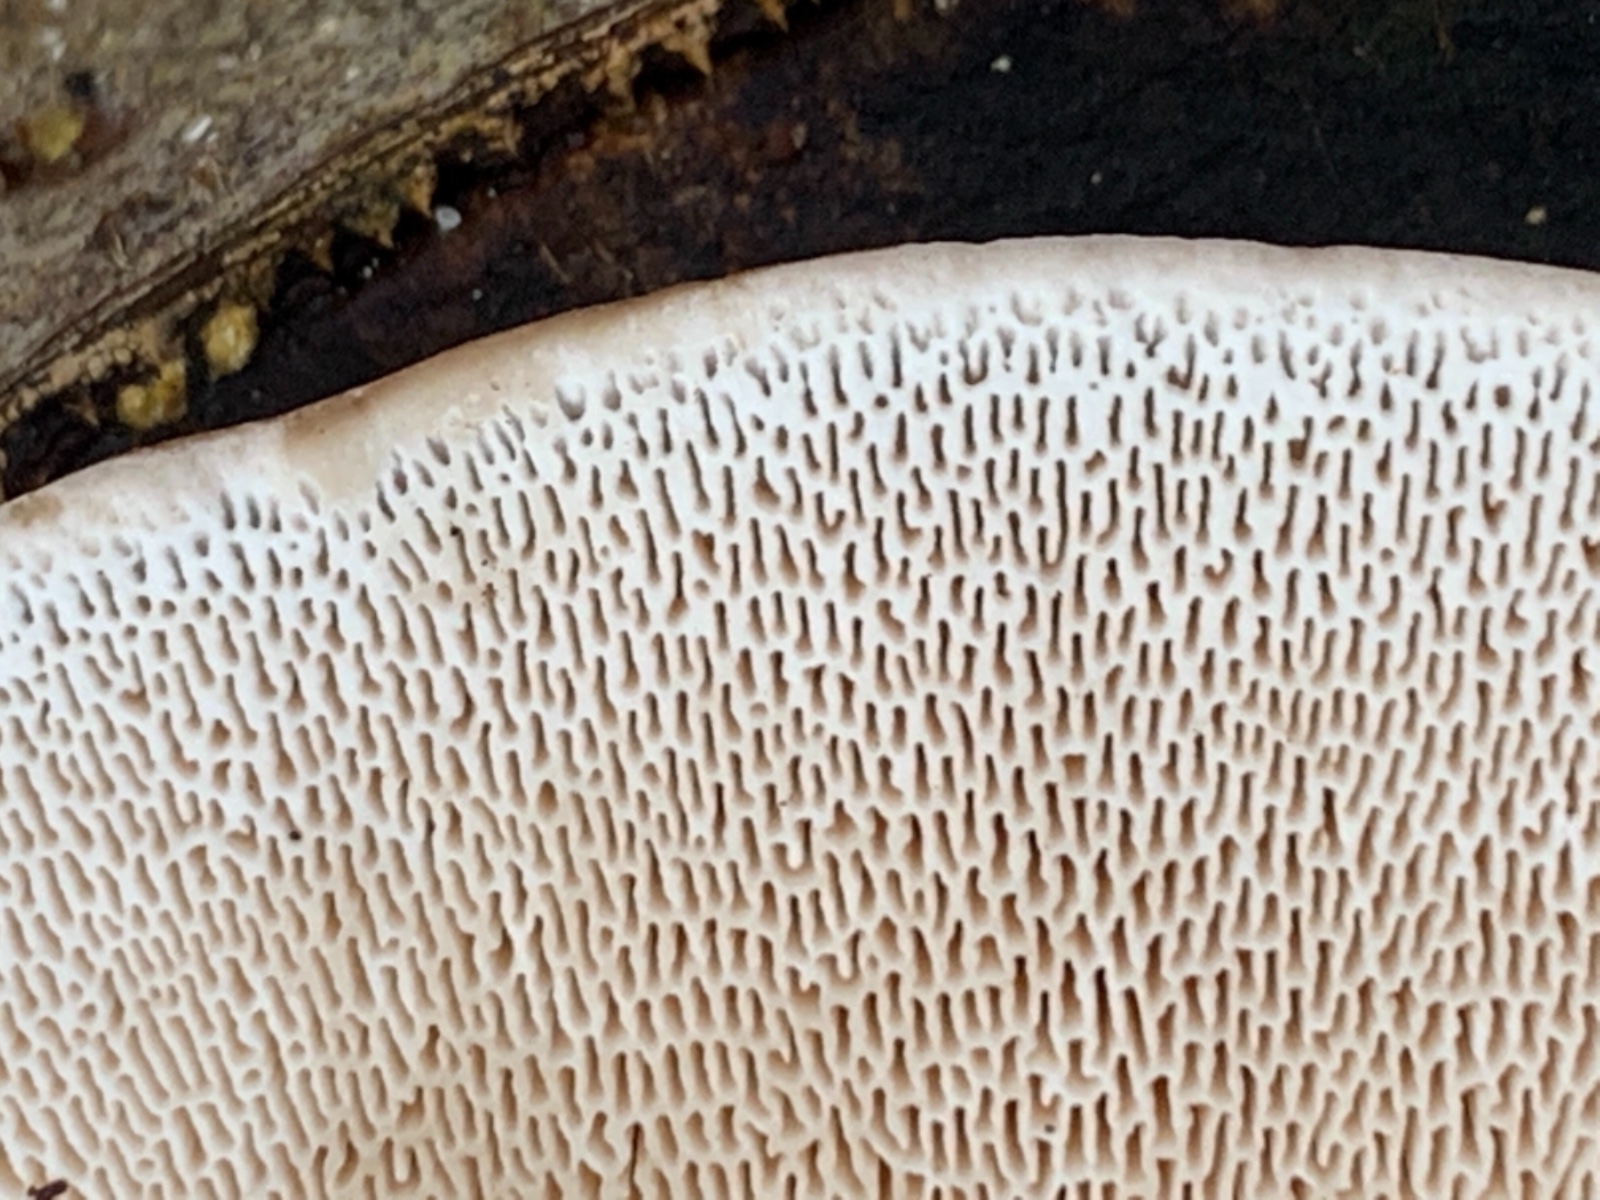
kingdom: Fungi
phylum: Basidiomycota
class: Agaricomycetes
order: Polyporales
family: Polyporaceae
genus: Trametes
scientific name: Trametes gibbosa
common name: puklet læderporesvamp
